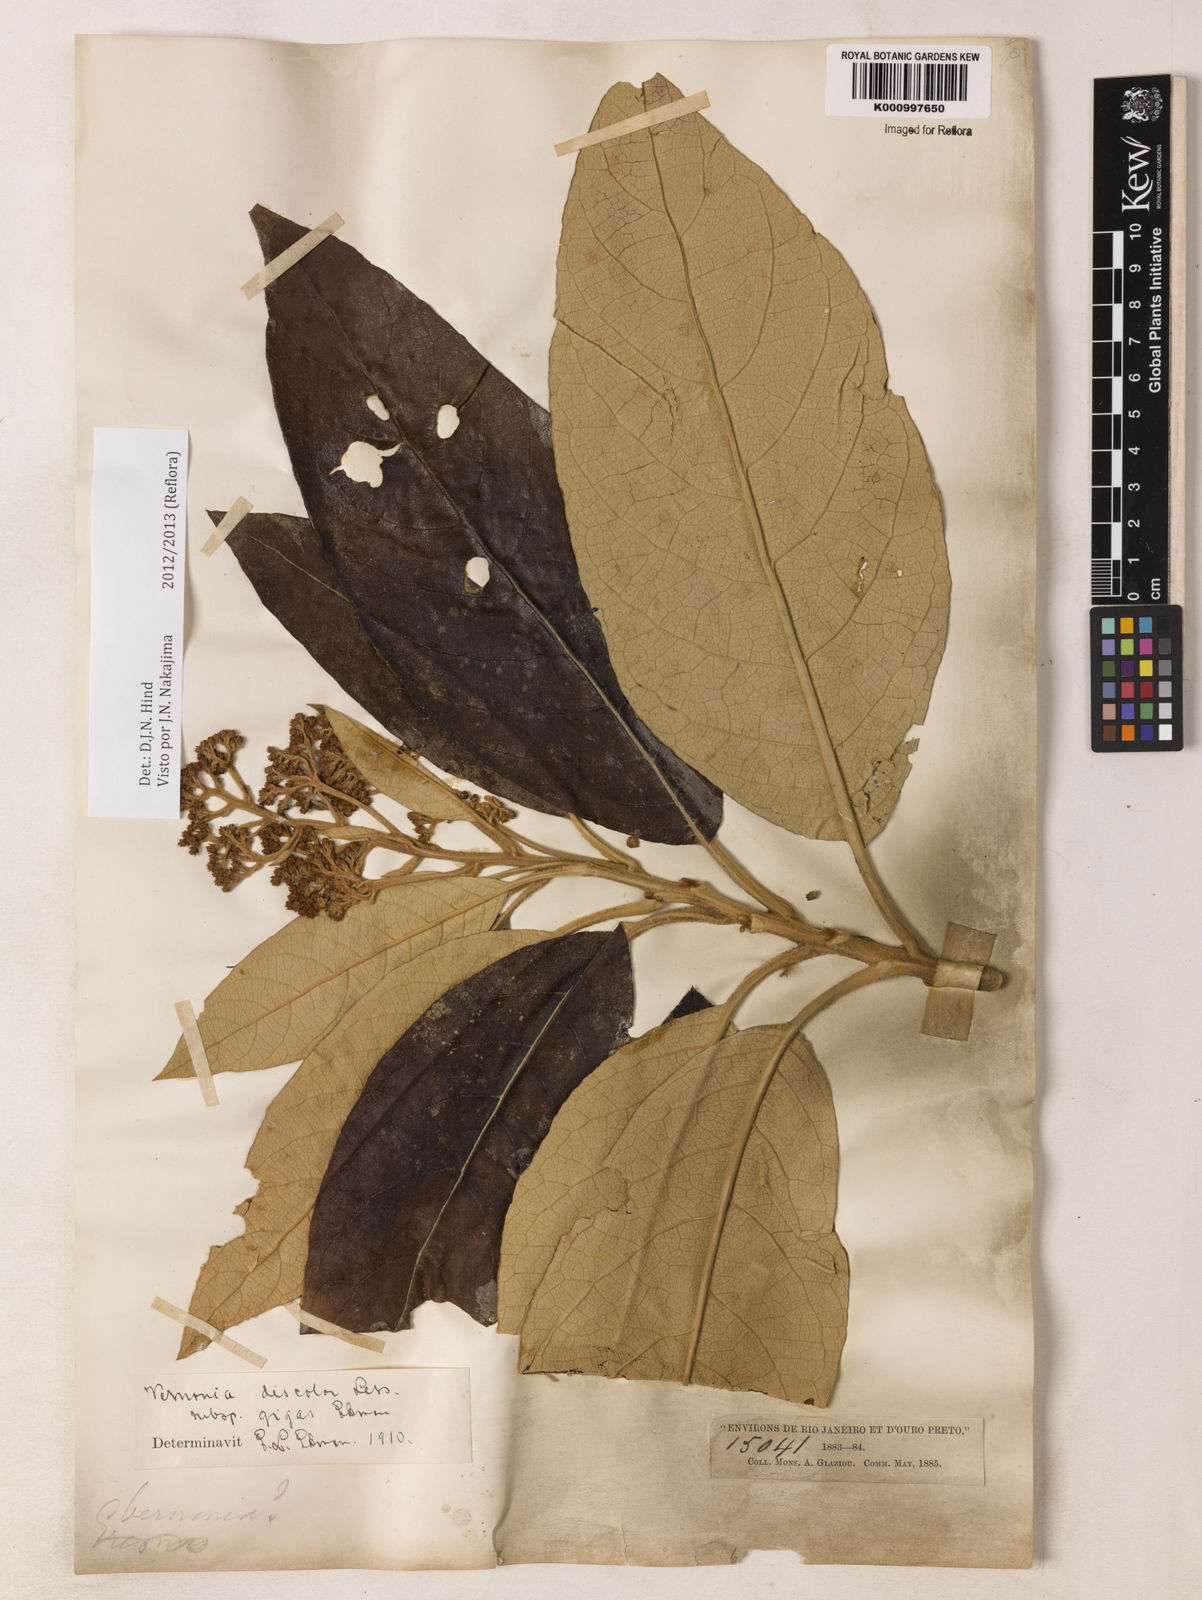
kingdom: Plantae
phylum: Tracheophyta
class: Magnoliopsida
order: Asterales
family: Asteraceae
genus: Vernonanthura
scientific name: Vernonanthura discolor
